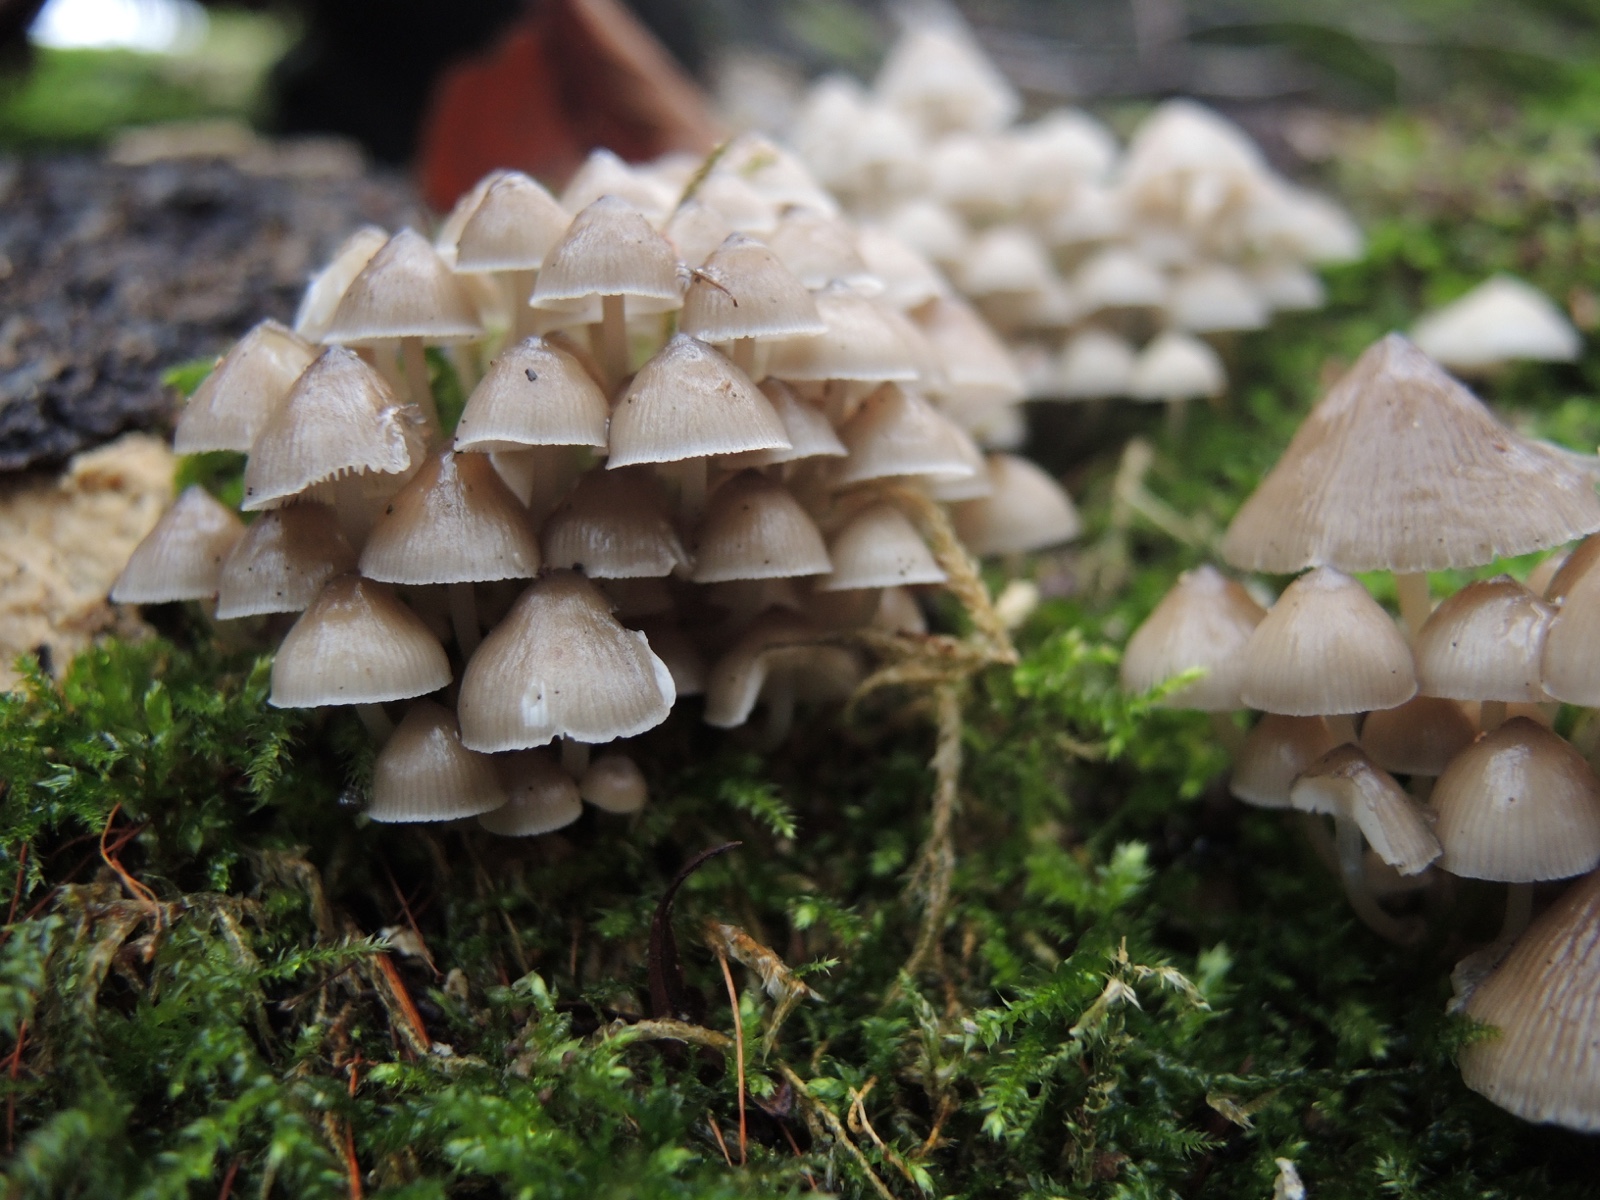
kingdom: Fungi
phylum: Basidiomycota
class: Agaricomycetes
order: Agaricales
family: Mycenaceae
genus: Mycena
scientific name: Mycena tintinnabulum
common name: vinter-huesvamp
